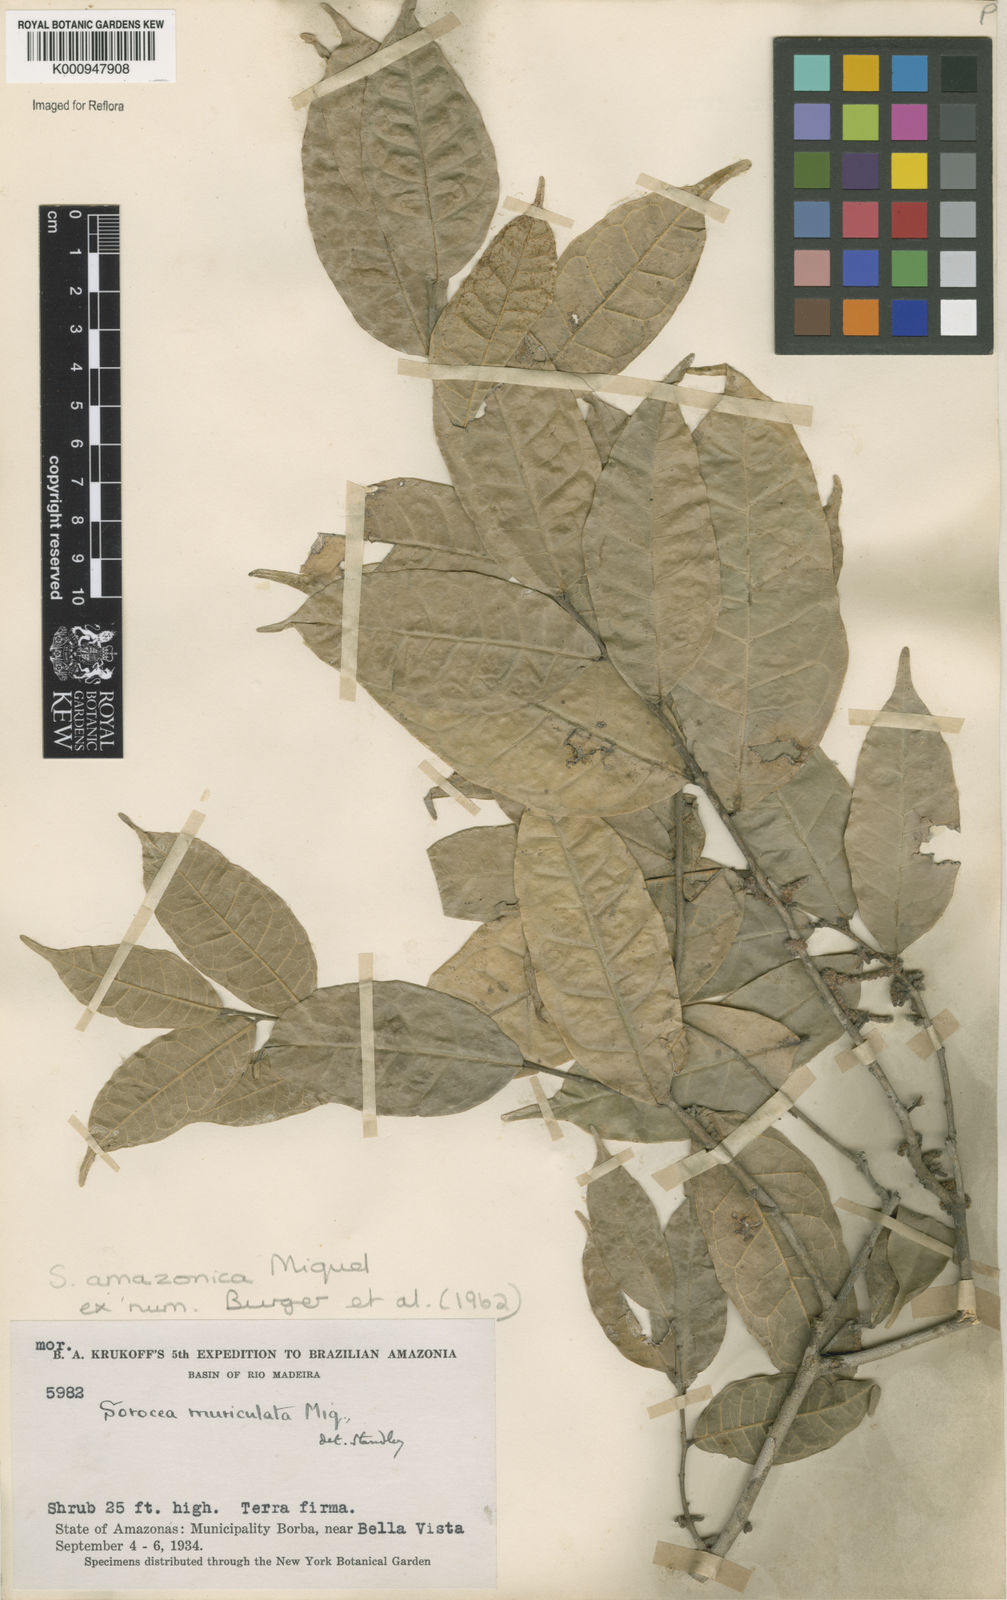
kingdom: Plantae
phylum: Tracheophyta
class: Magnoliopsida
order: Rosales
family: Moraceae
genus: Sorocea
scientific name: Sorocea muriculata
